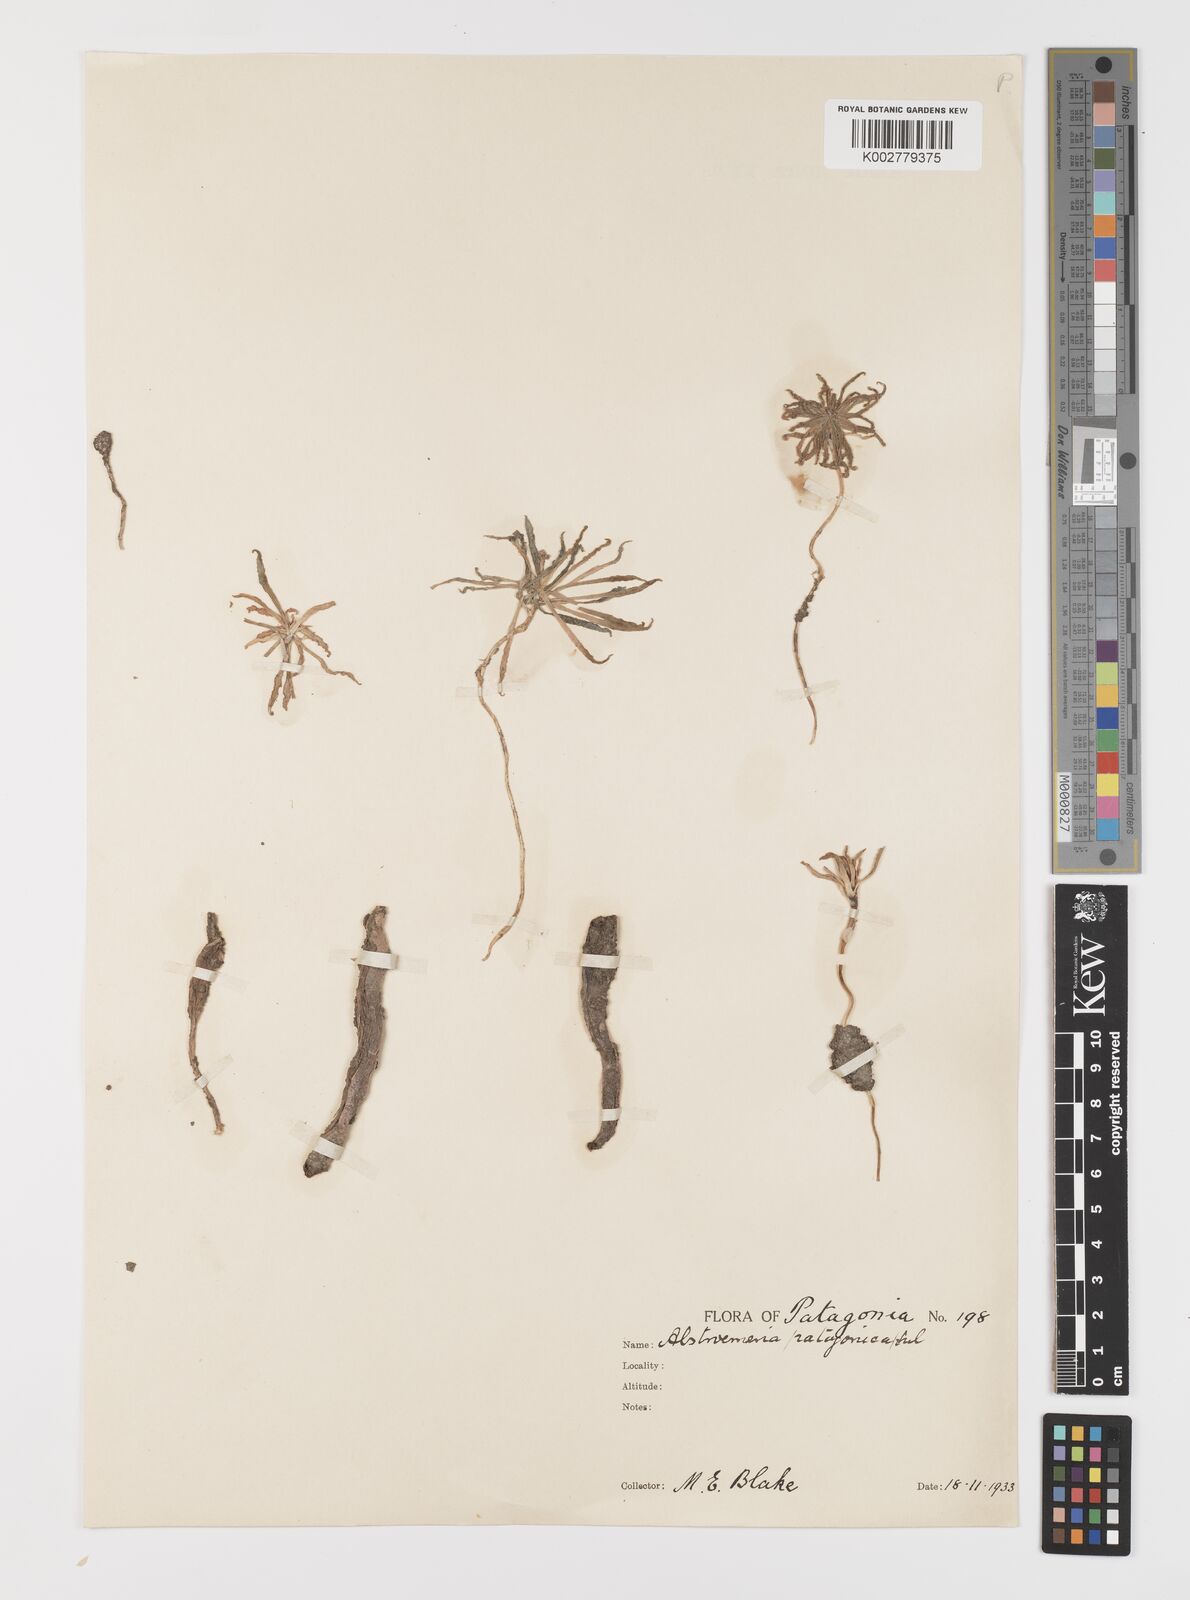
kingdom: Plantae
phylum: Tracheophyta
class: Liliopsida
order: Liliales
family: Alstroemeriaceae
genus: Alstroemeria
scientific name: Alstroemeria patagonica
